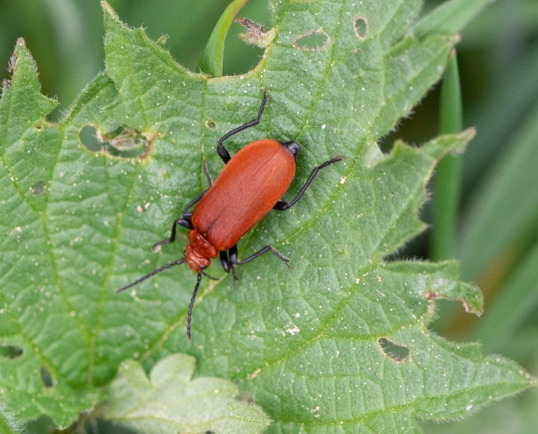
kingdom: Animalia
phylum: Arthropoda
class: Insecta
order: Coleoptera
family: Pyrochroidae
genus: Pyrochroa
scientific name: Pyrochroa serraticornis
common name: Rødhovedet kardinalbille
